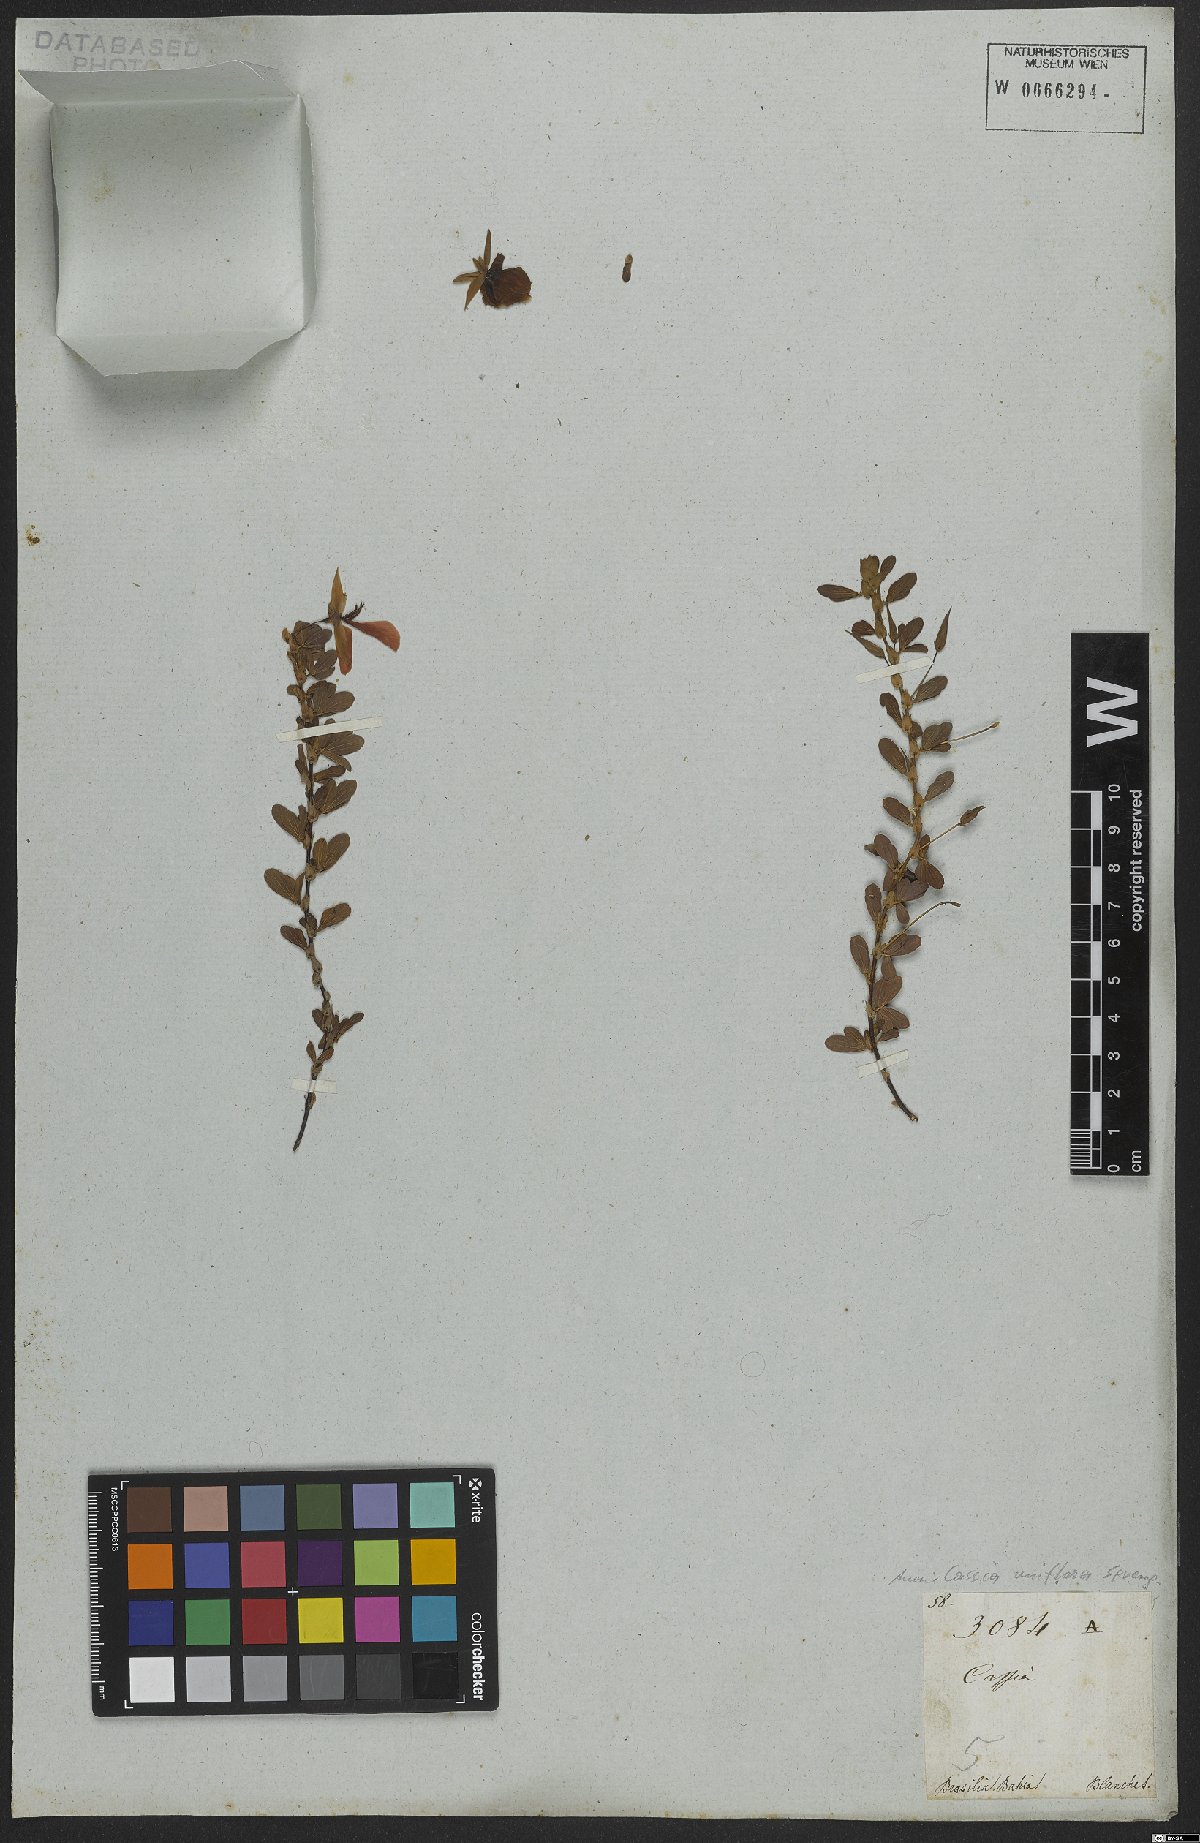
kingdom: Plantae
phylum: Tracheophyta
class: Magnoliopsida
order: Fabales
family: Fabaceae
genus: Senna
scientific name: Senna uniflora
